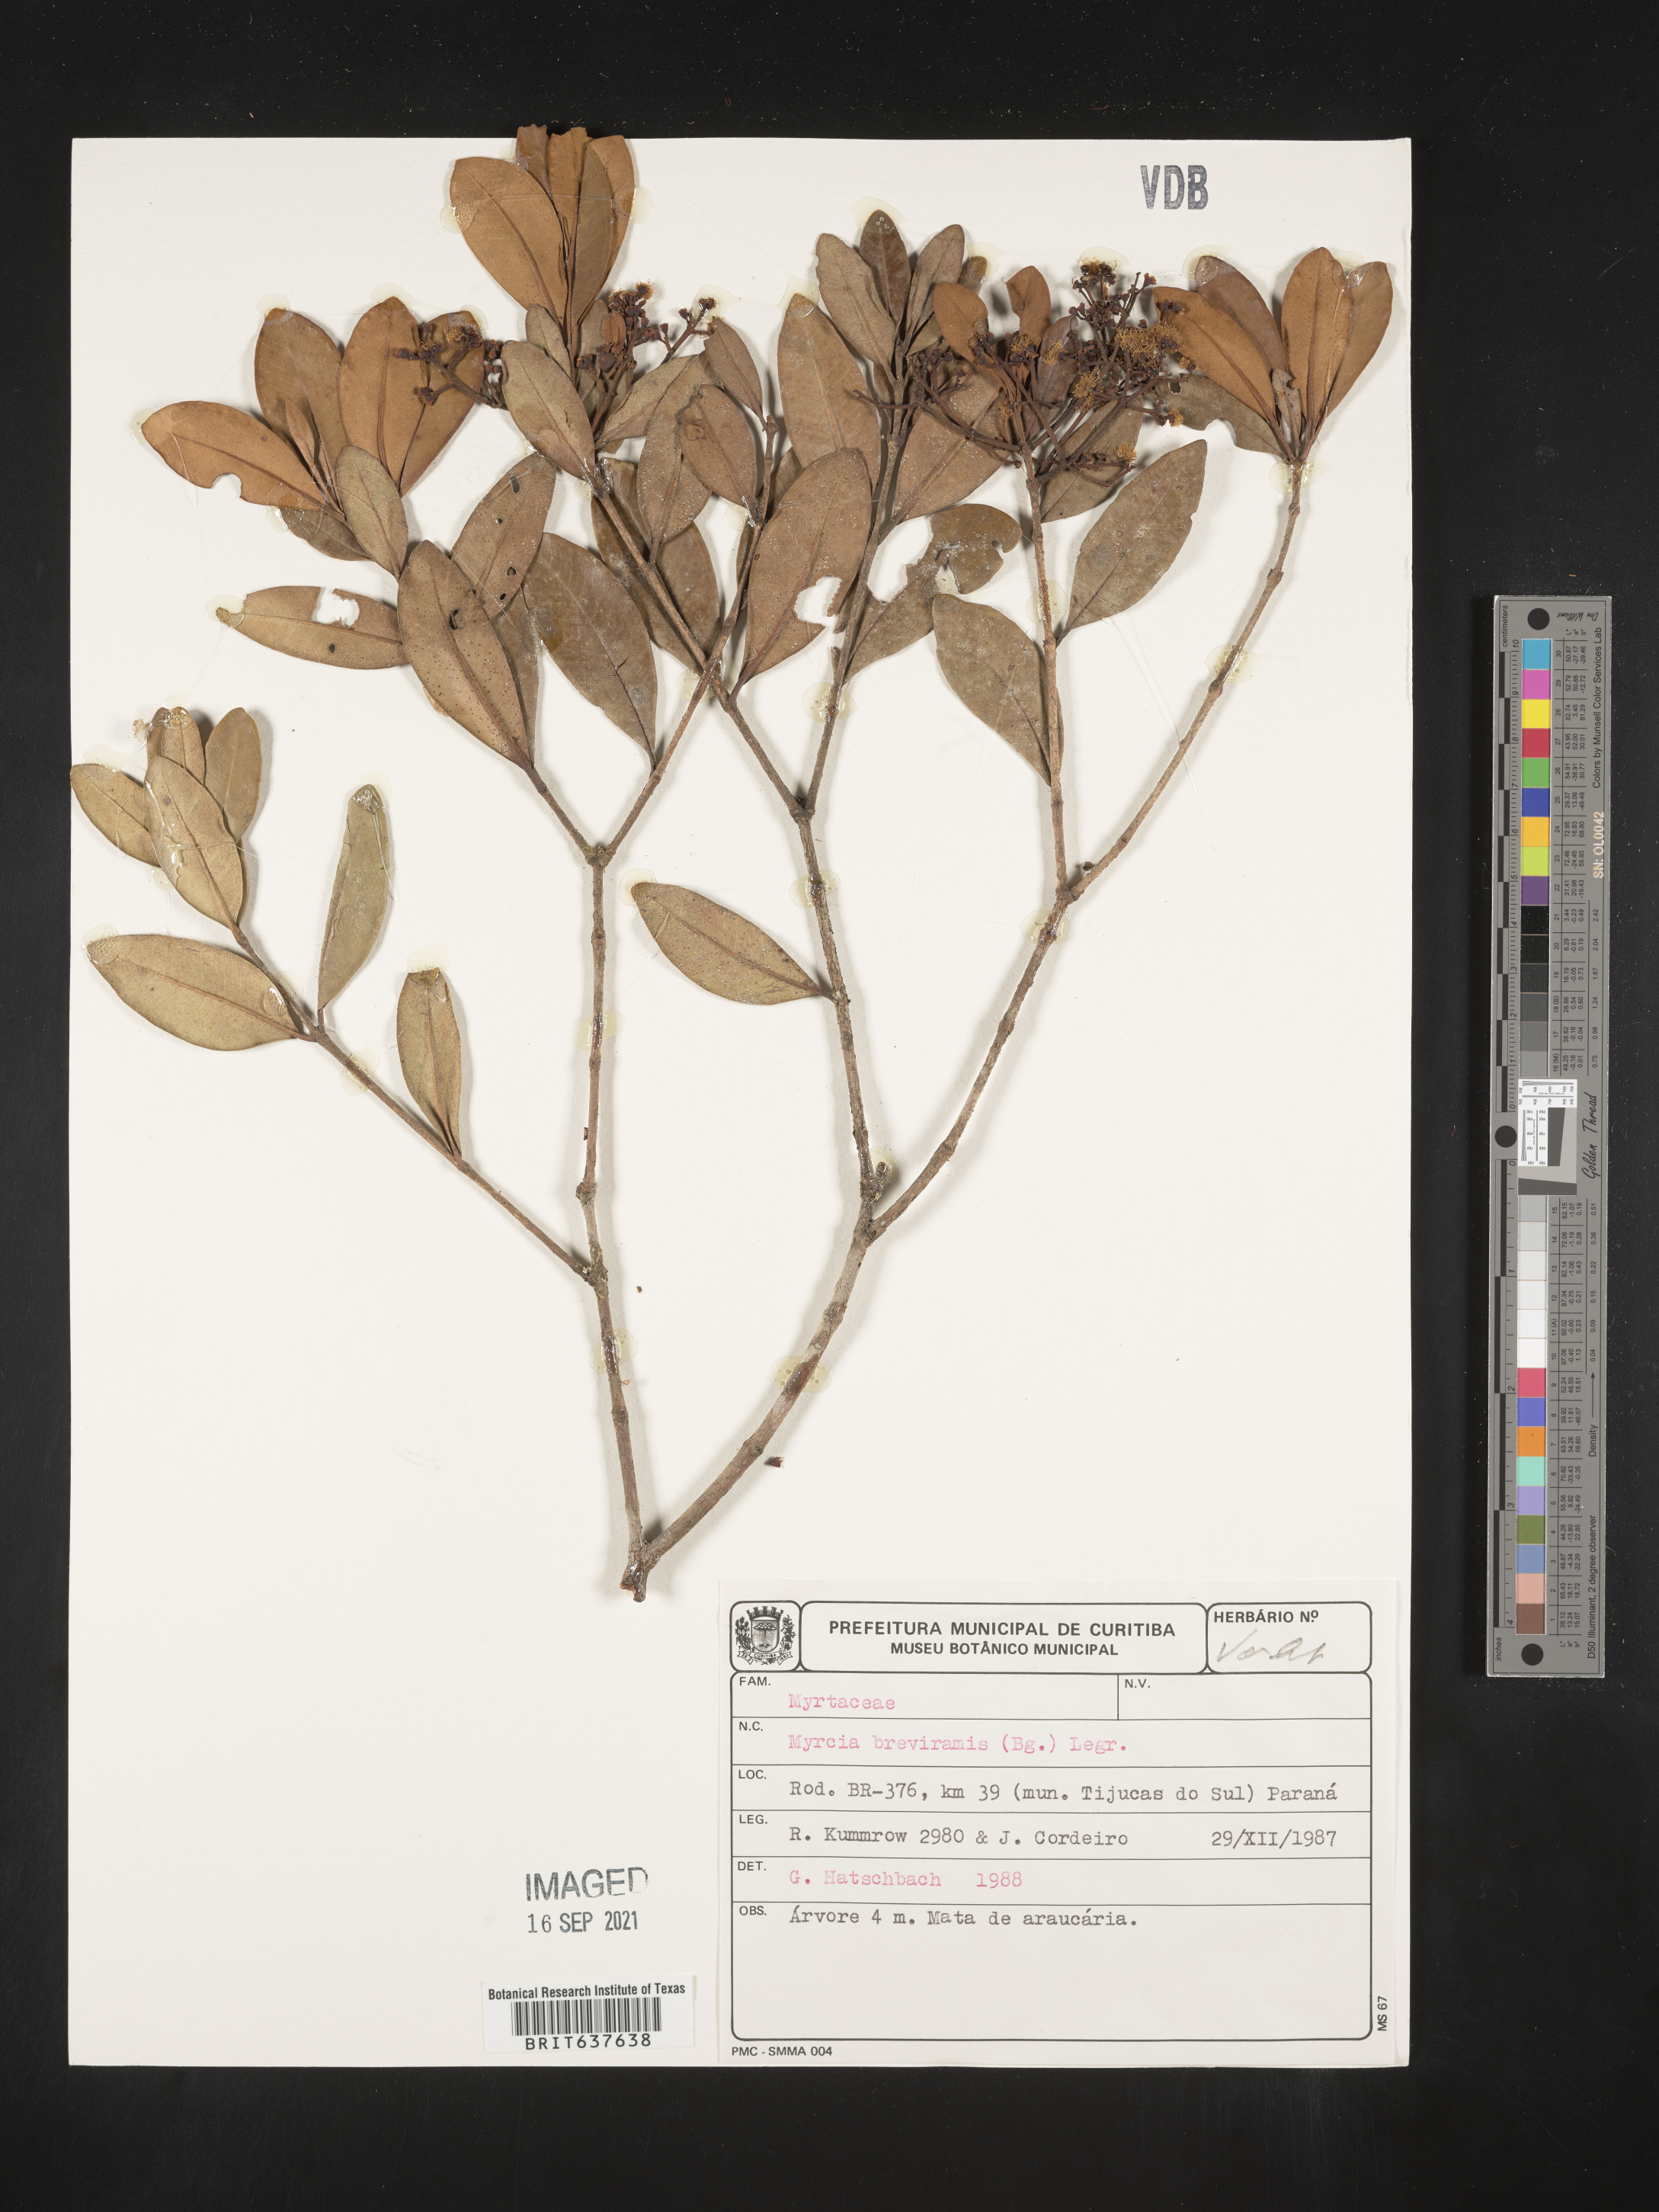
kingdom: Plantae
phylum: Tracheophyta
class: Magnoliopsida
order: Myrtales
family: Myrtaceae
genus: Myrcia
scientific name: Myrcia
